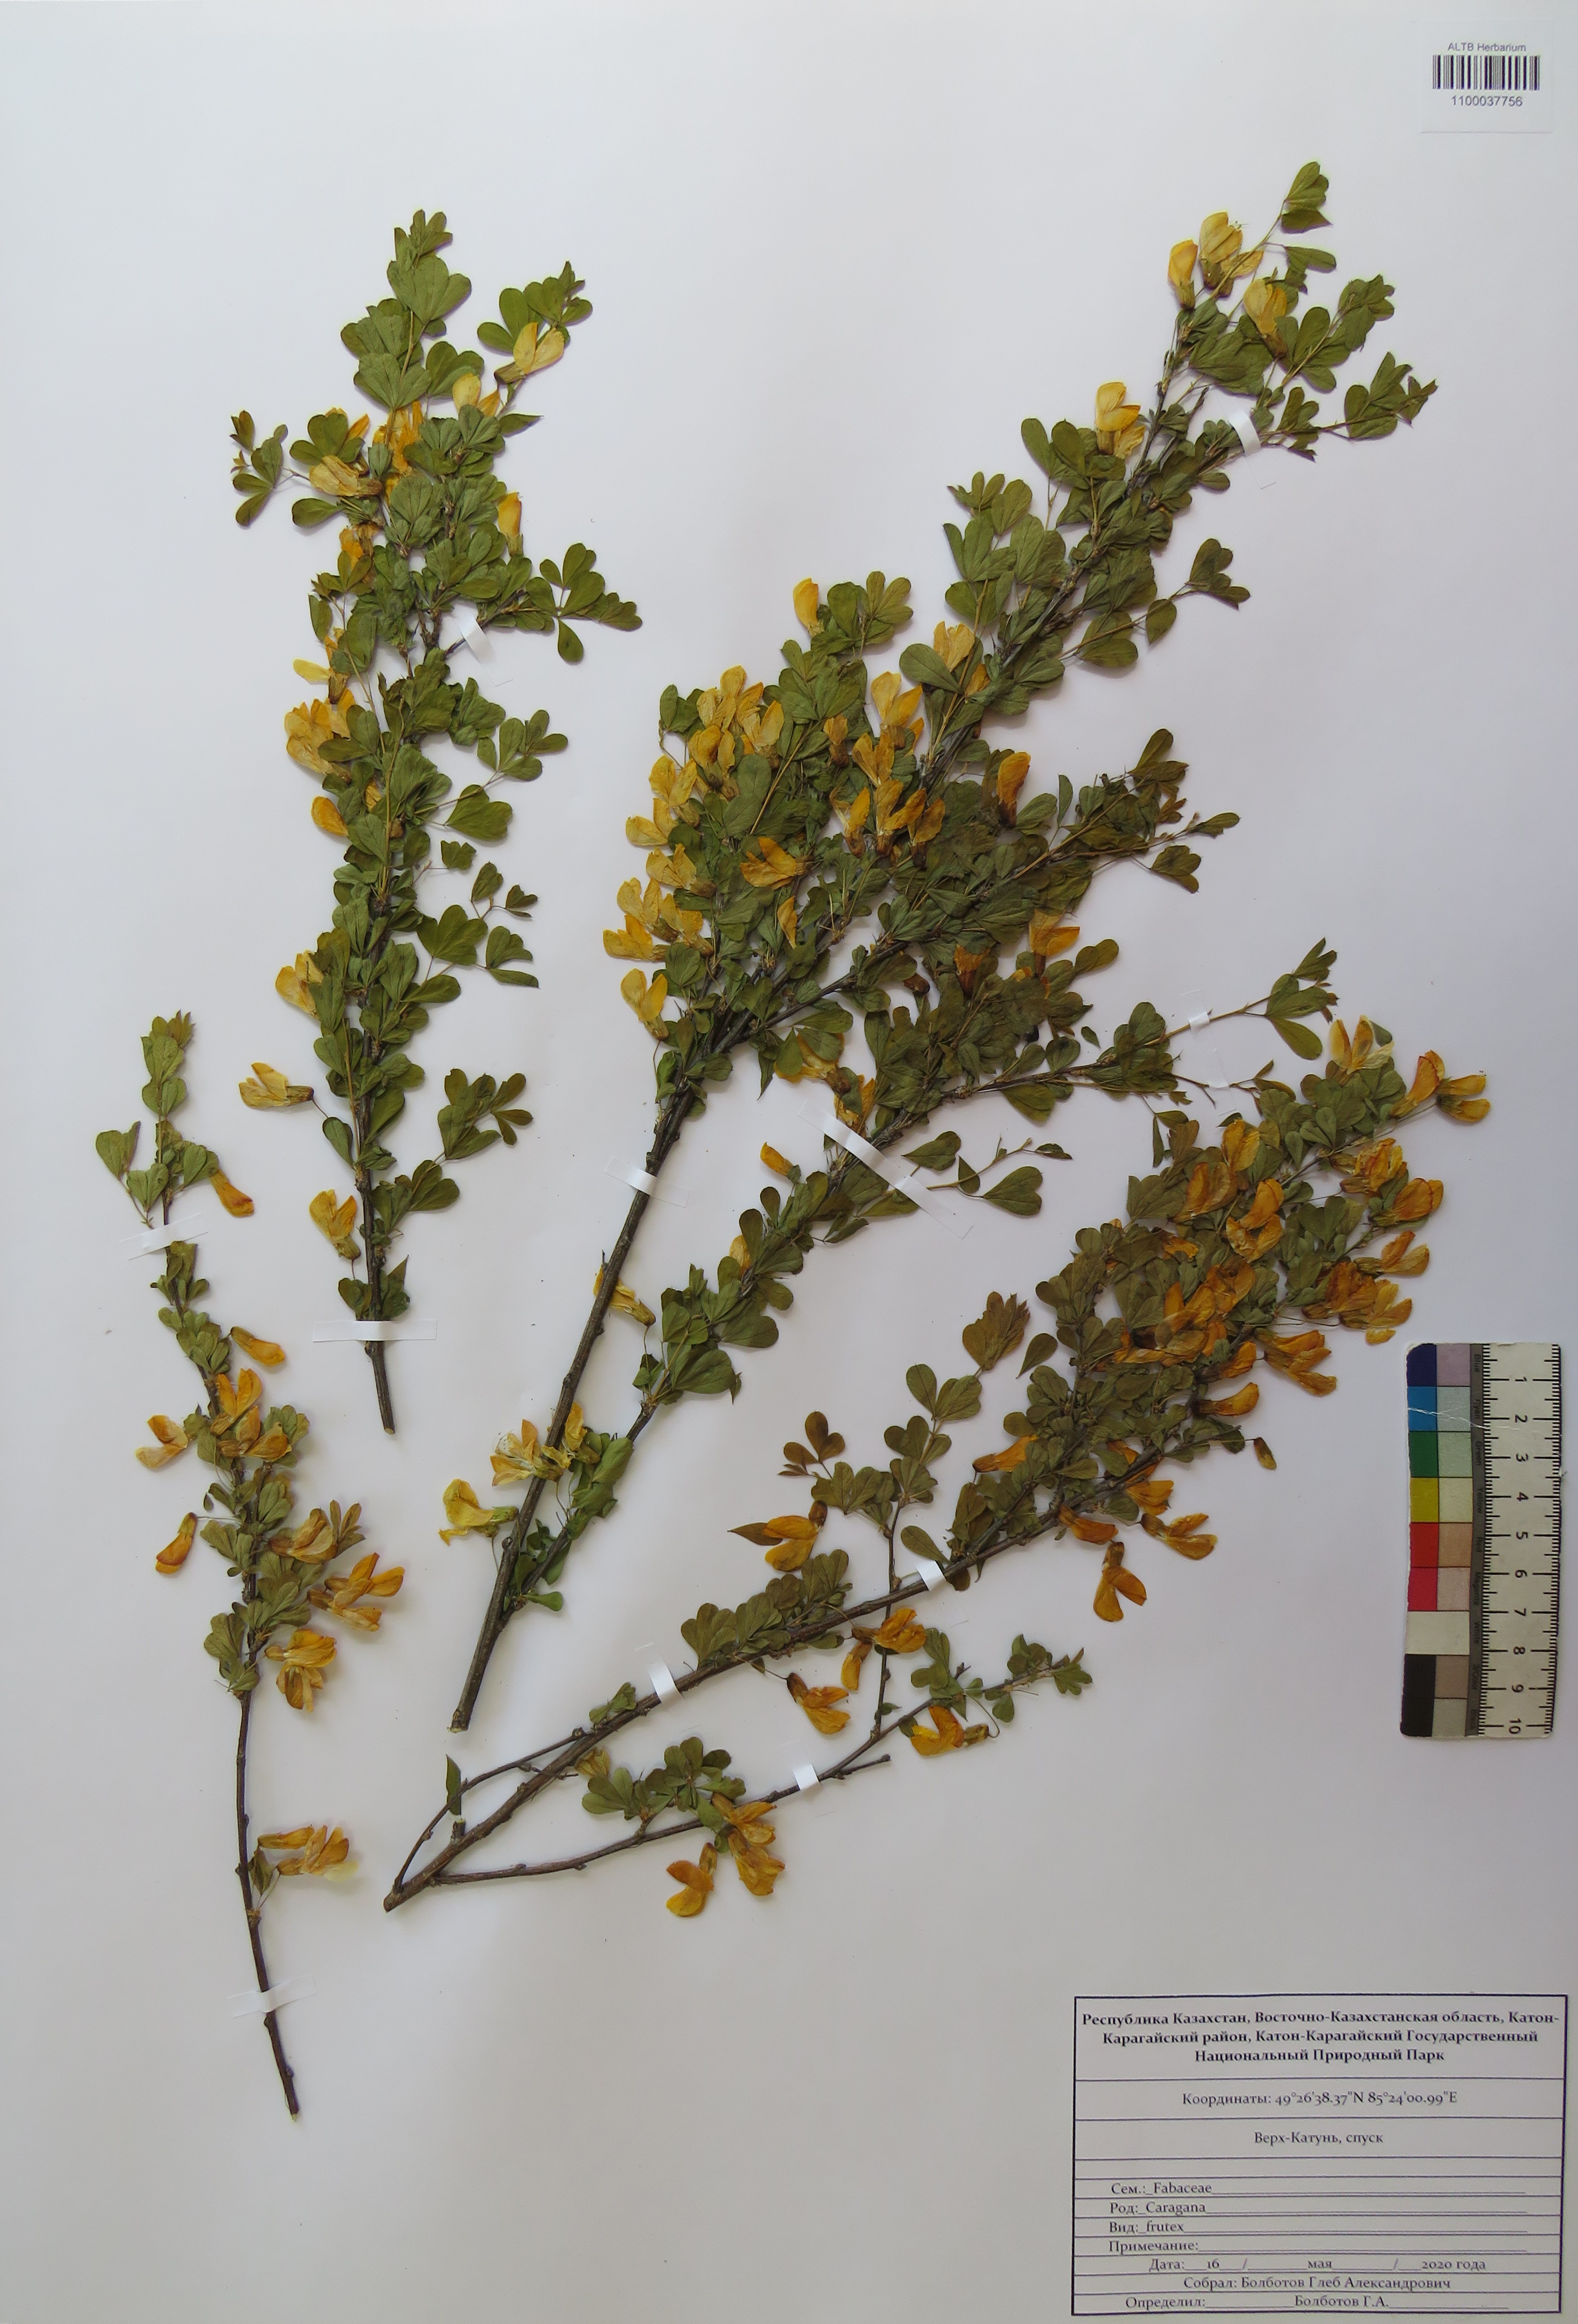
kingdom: Plantae
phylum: Tracheophyta
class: Magnoliopsida
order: Fabales
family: Fabaceae
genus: Caragana
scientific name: Caragana frutex
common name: Russian peashrub
